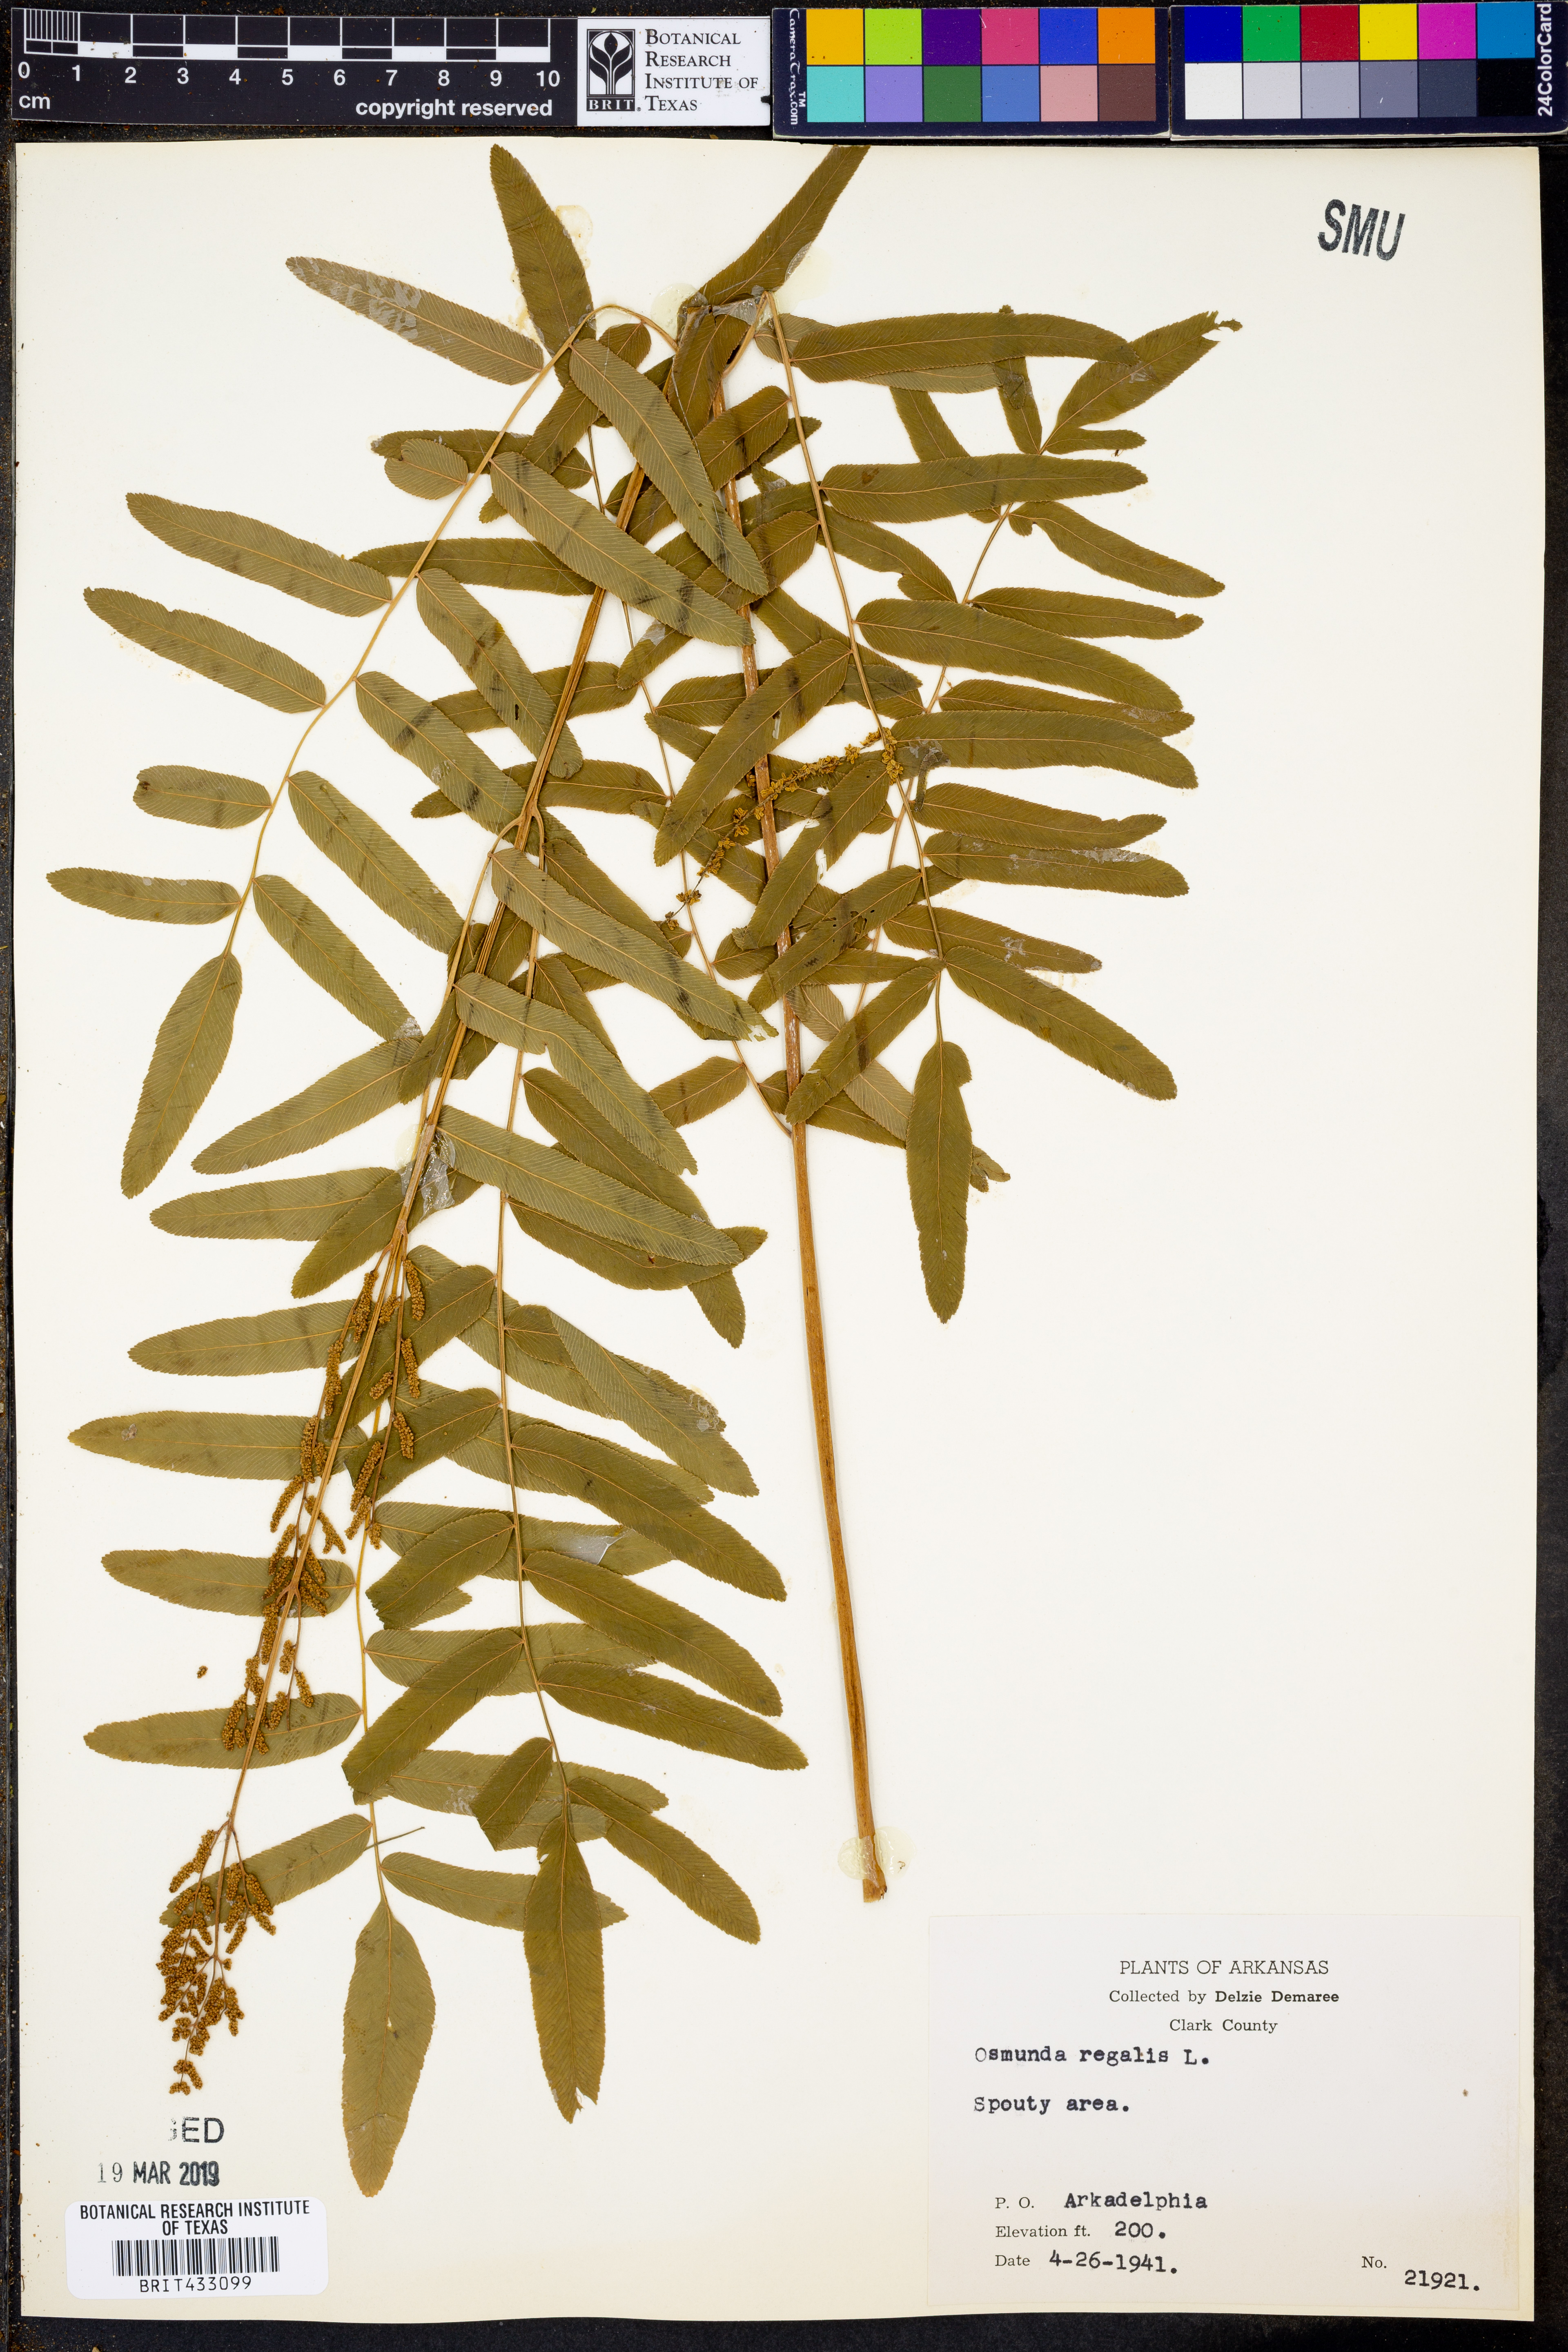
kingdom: Plantae
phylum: Tracheophyta
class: Polypodiopsida
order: Osmundales
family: Osmundaceae
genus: Osmunda
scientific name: Osmunda regalis
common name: Royal fern
